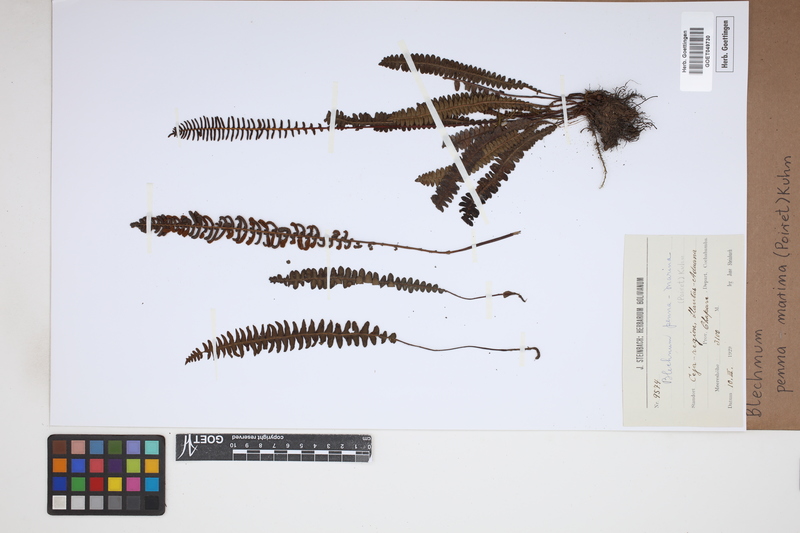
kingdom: Plantae
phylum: Tracheophyta
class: Polypodiopsida
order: Polypodiales
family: Blechnaceae
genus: Austroblechnum
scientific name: Austroblechnum penna-marina
